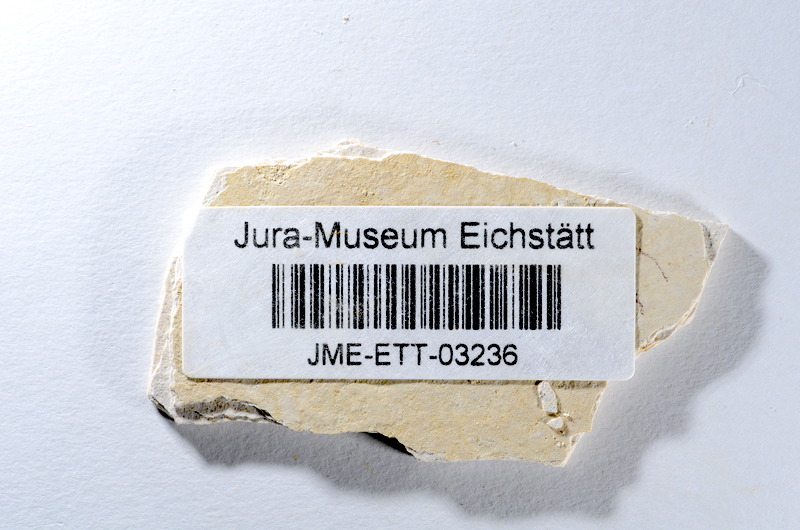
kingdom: Animalia
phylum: Chordata
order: Salmoniformes
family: Orthogonikleithridae
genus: Orthogonikleithrus
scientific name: Orthogonikleithrus hoelli
